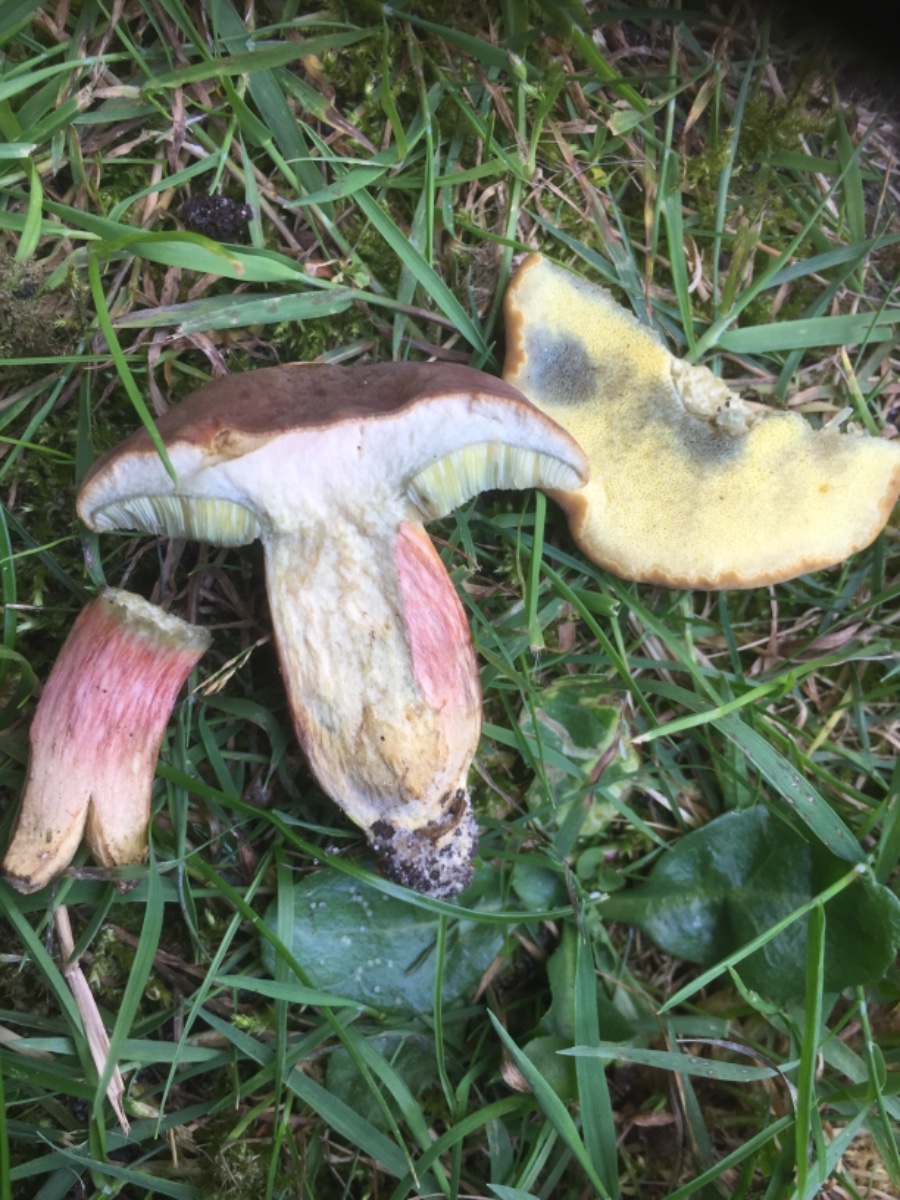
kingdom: Fungi
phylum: Basidiomycota
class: Agaricomycetes
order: Boletales
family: Boletaceae
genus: Hortiboletus
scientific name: Hortiboletus bubalinus
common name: aurora-rørhat
